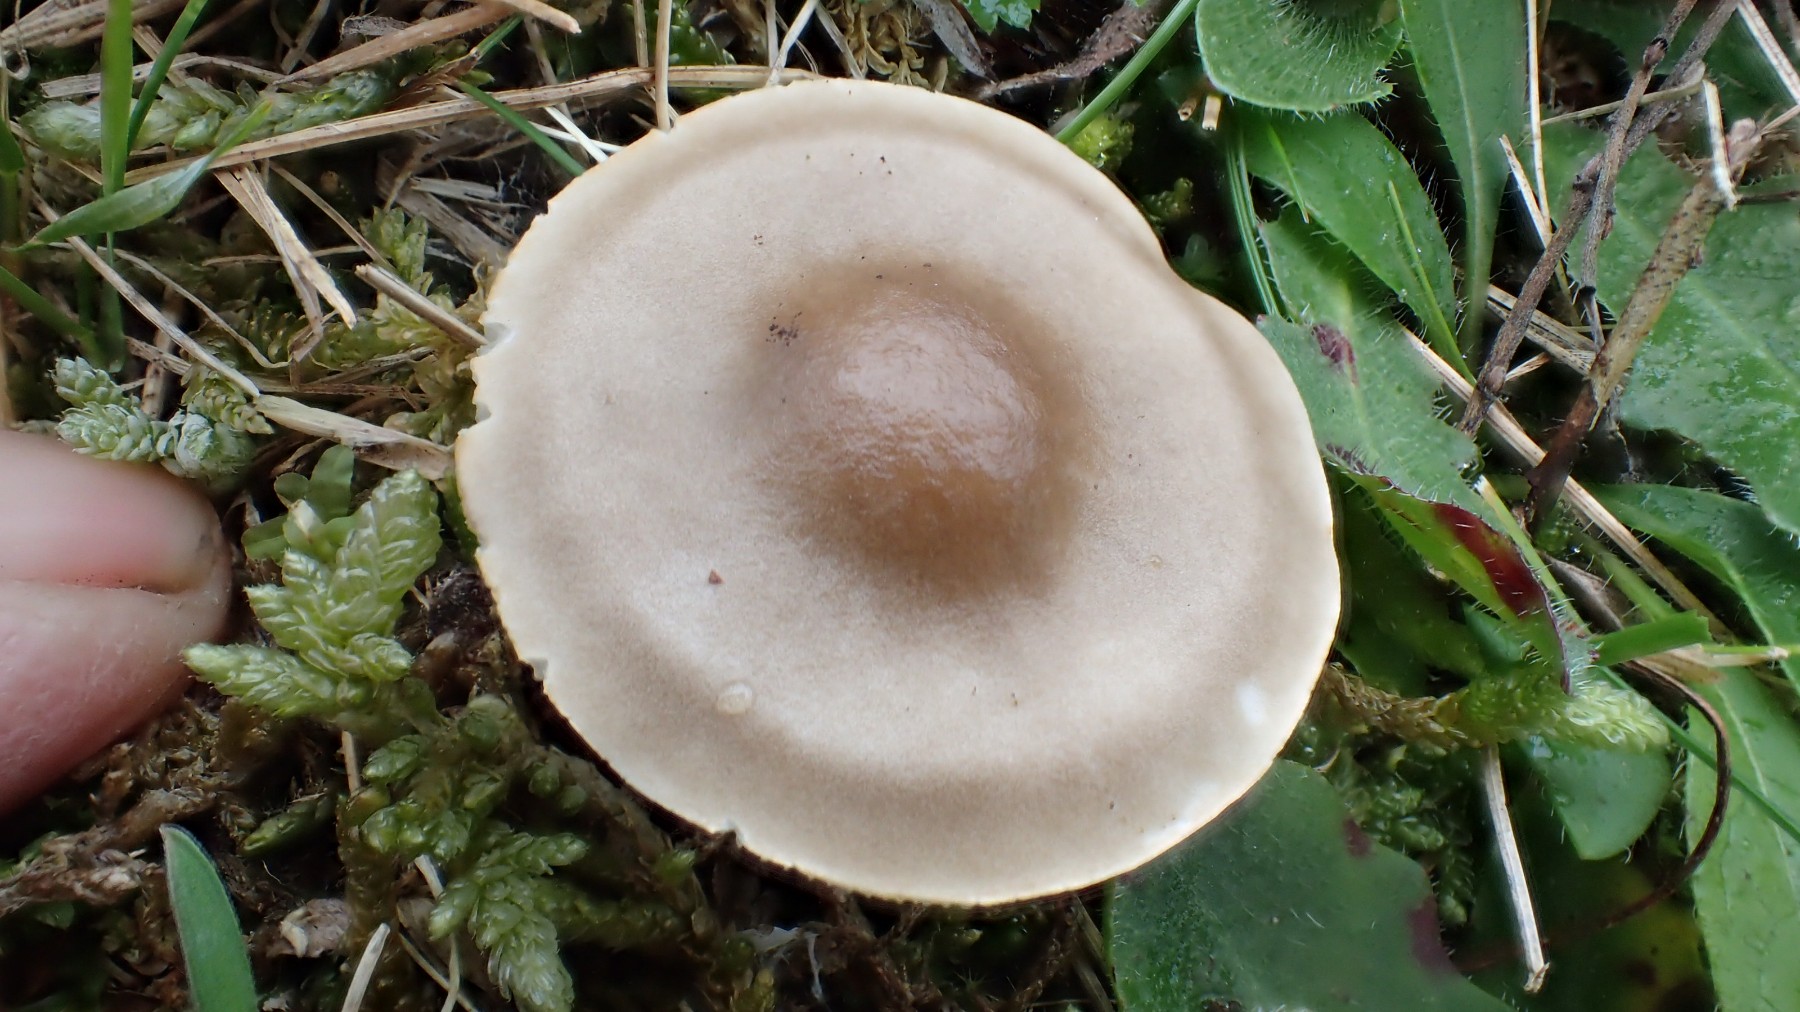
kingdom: Fungi
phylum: Basidiomycota
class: Agaricomycetes
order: Agaricales
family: Tricholomataceae
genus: Melanoleuca
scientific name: Melanoleuca polioleuca
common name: hvidbladet munkehat
